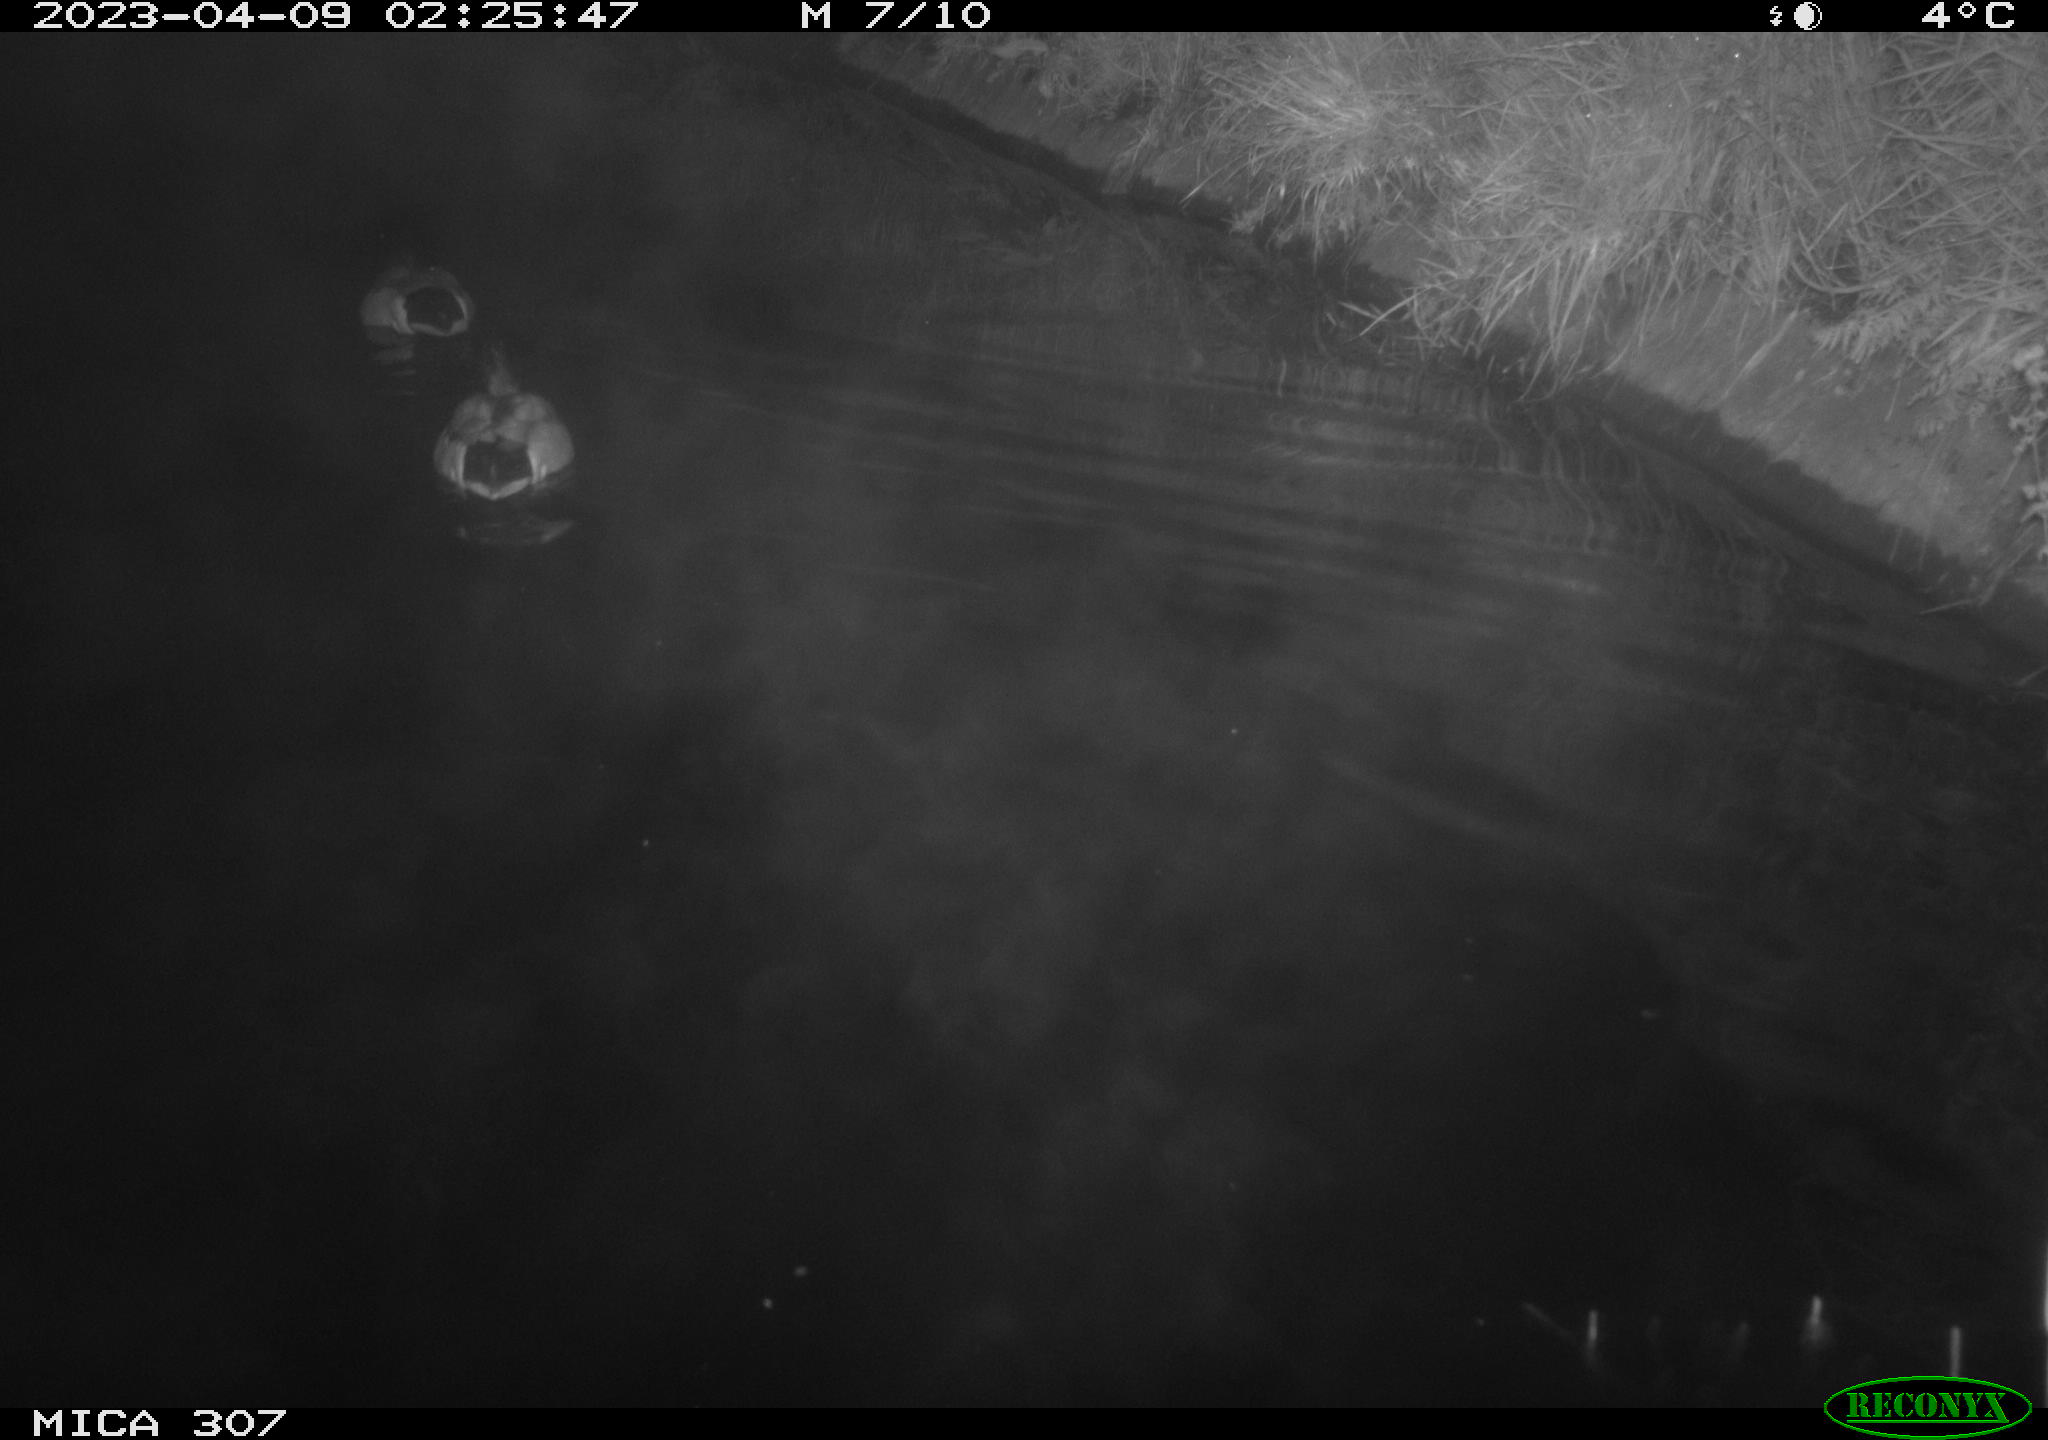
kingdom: Animalia
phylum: Chordata
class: Aves
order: Anseriformes
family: Anatidae
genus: Anas
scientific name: Anas
